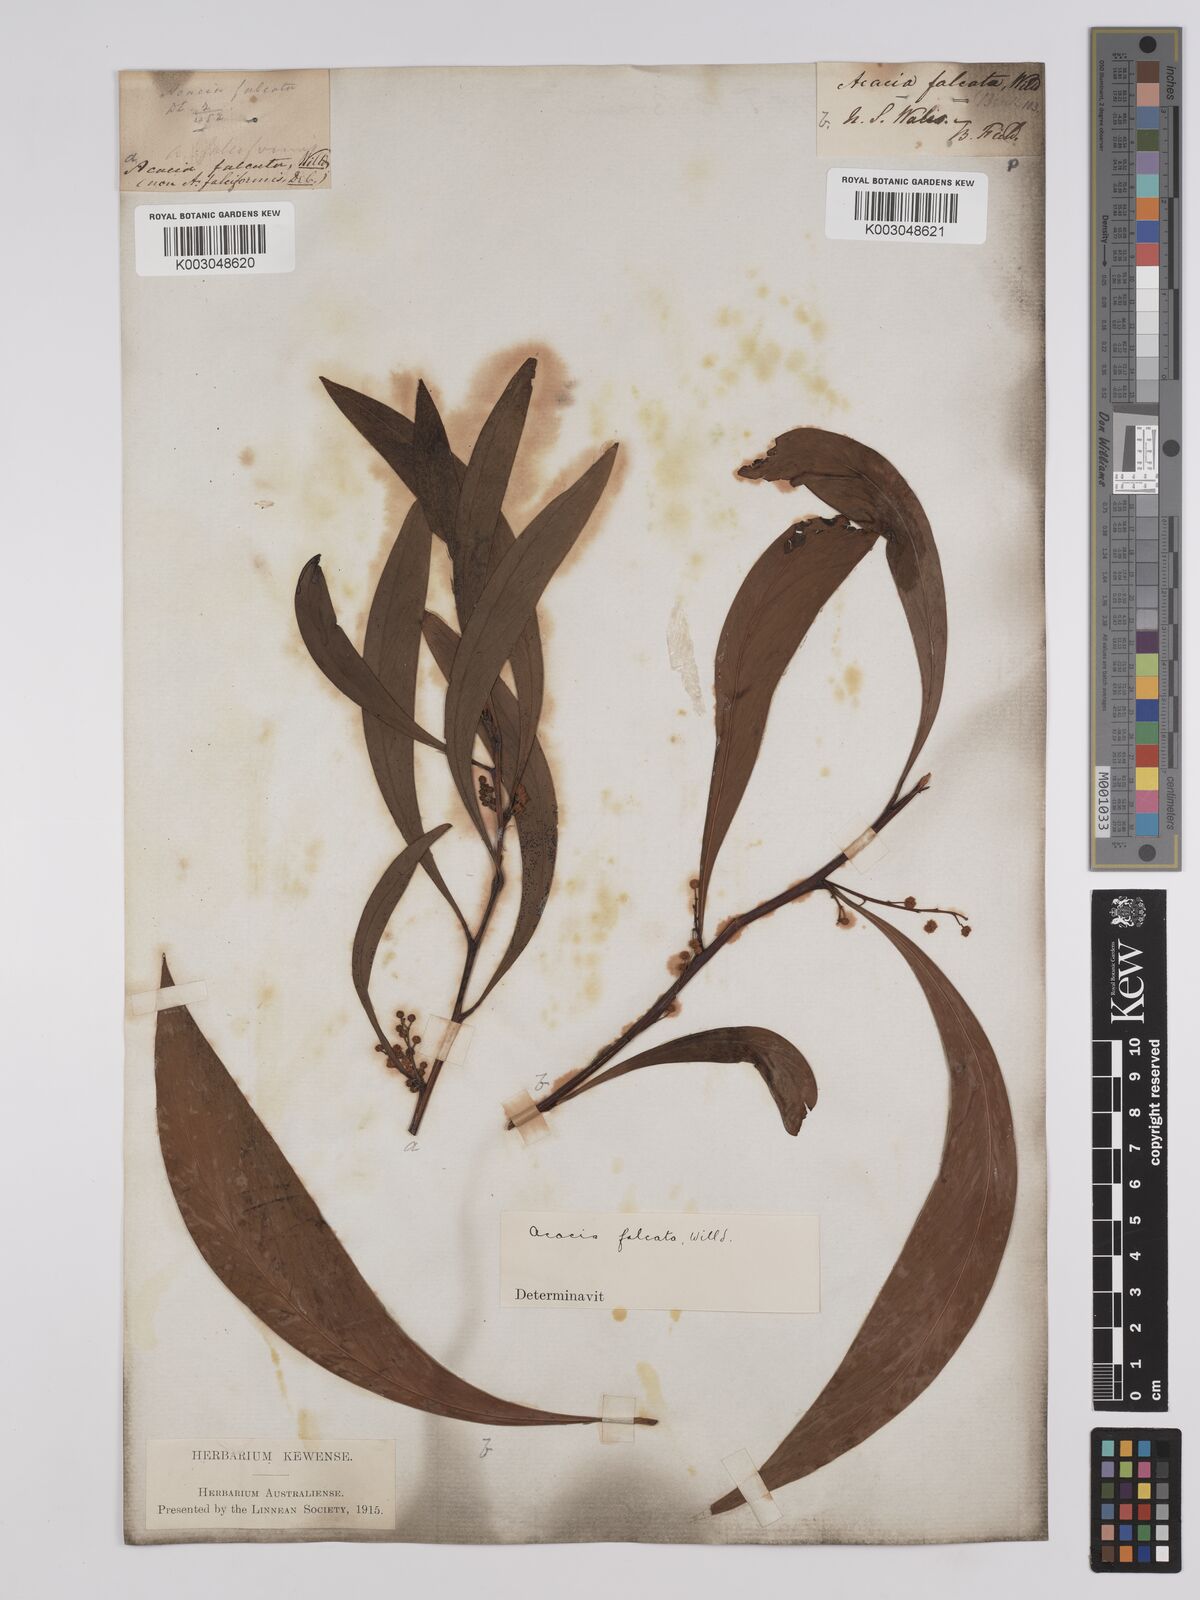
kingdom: Plantae
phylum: Tracheophyta
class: Magnoliopsida
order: Fabales
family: Fabaceae
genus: Acacia
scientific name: Acacia falcata
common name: Burra acacia
